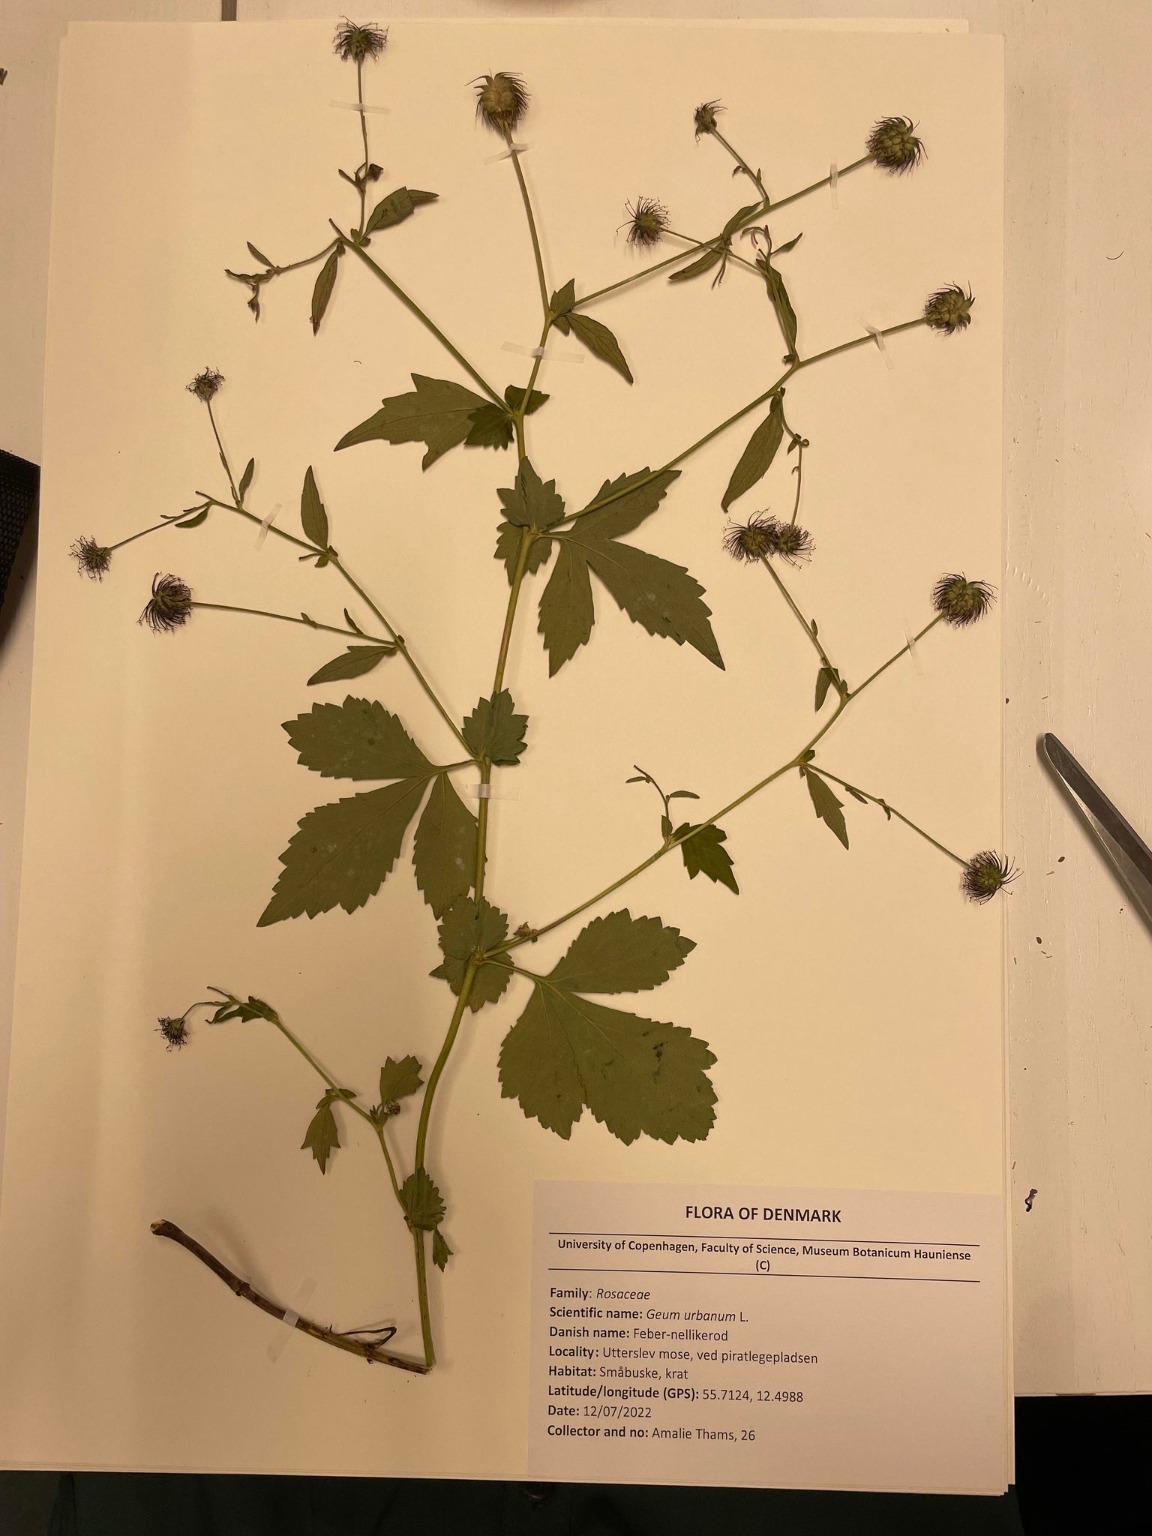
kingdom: Plantae
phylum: Tracheophyta
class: Magnoliopsida
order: Rosales
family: Rosaceae
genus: Geum
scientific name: Geum urbanum
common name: Feber-nellikerod
